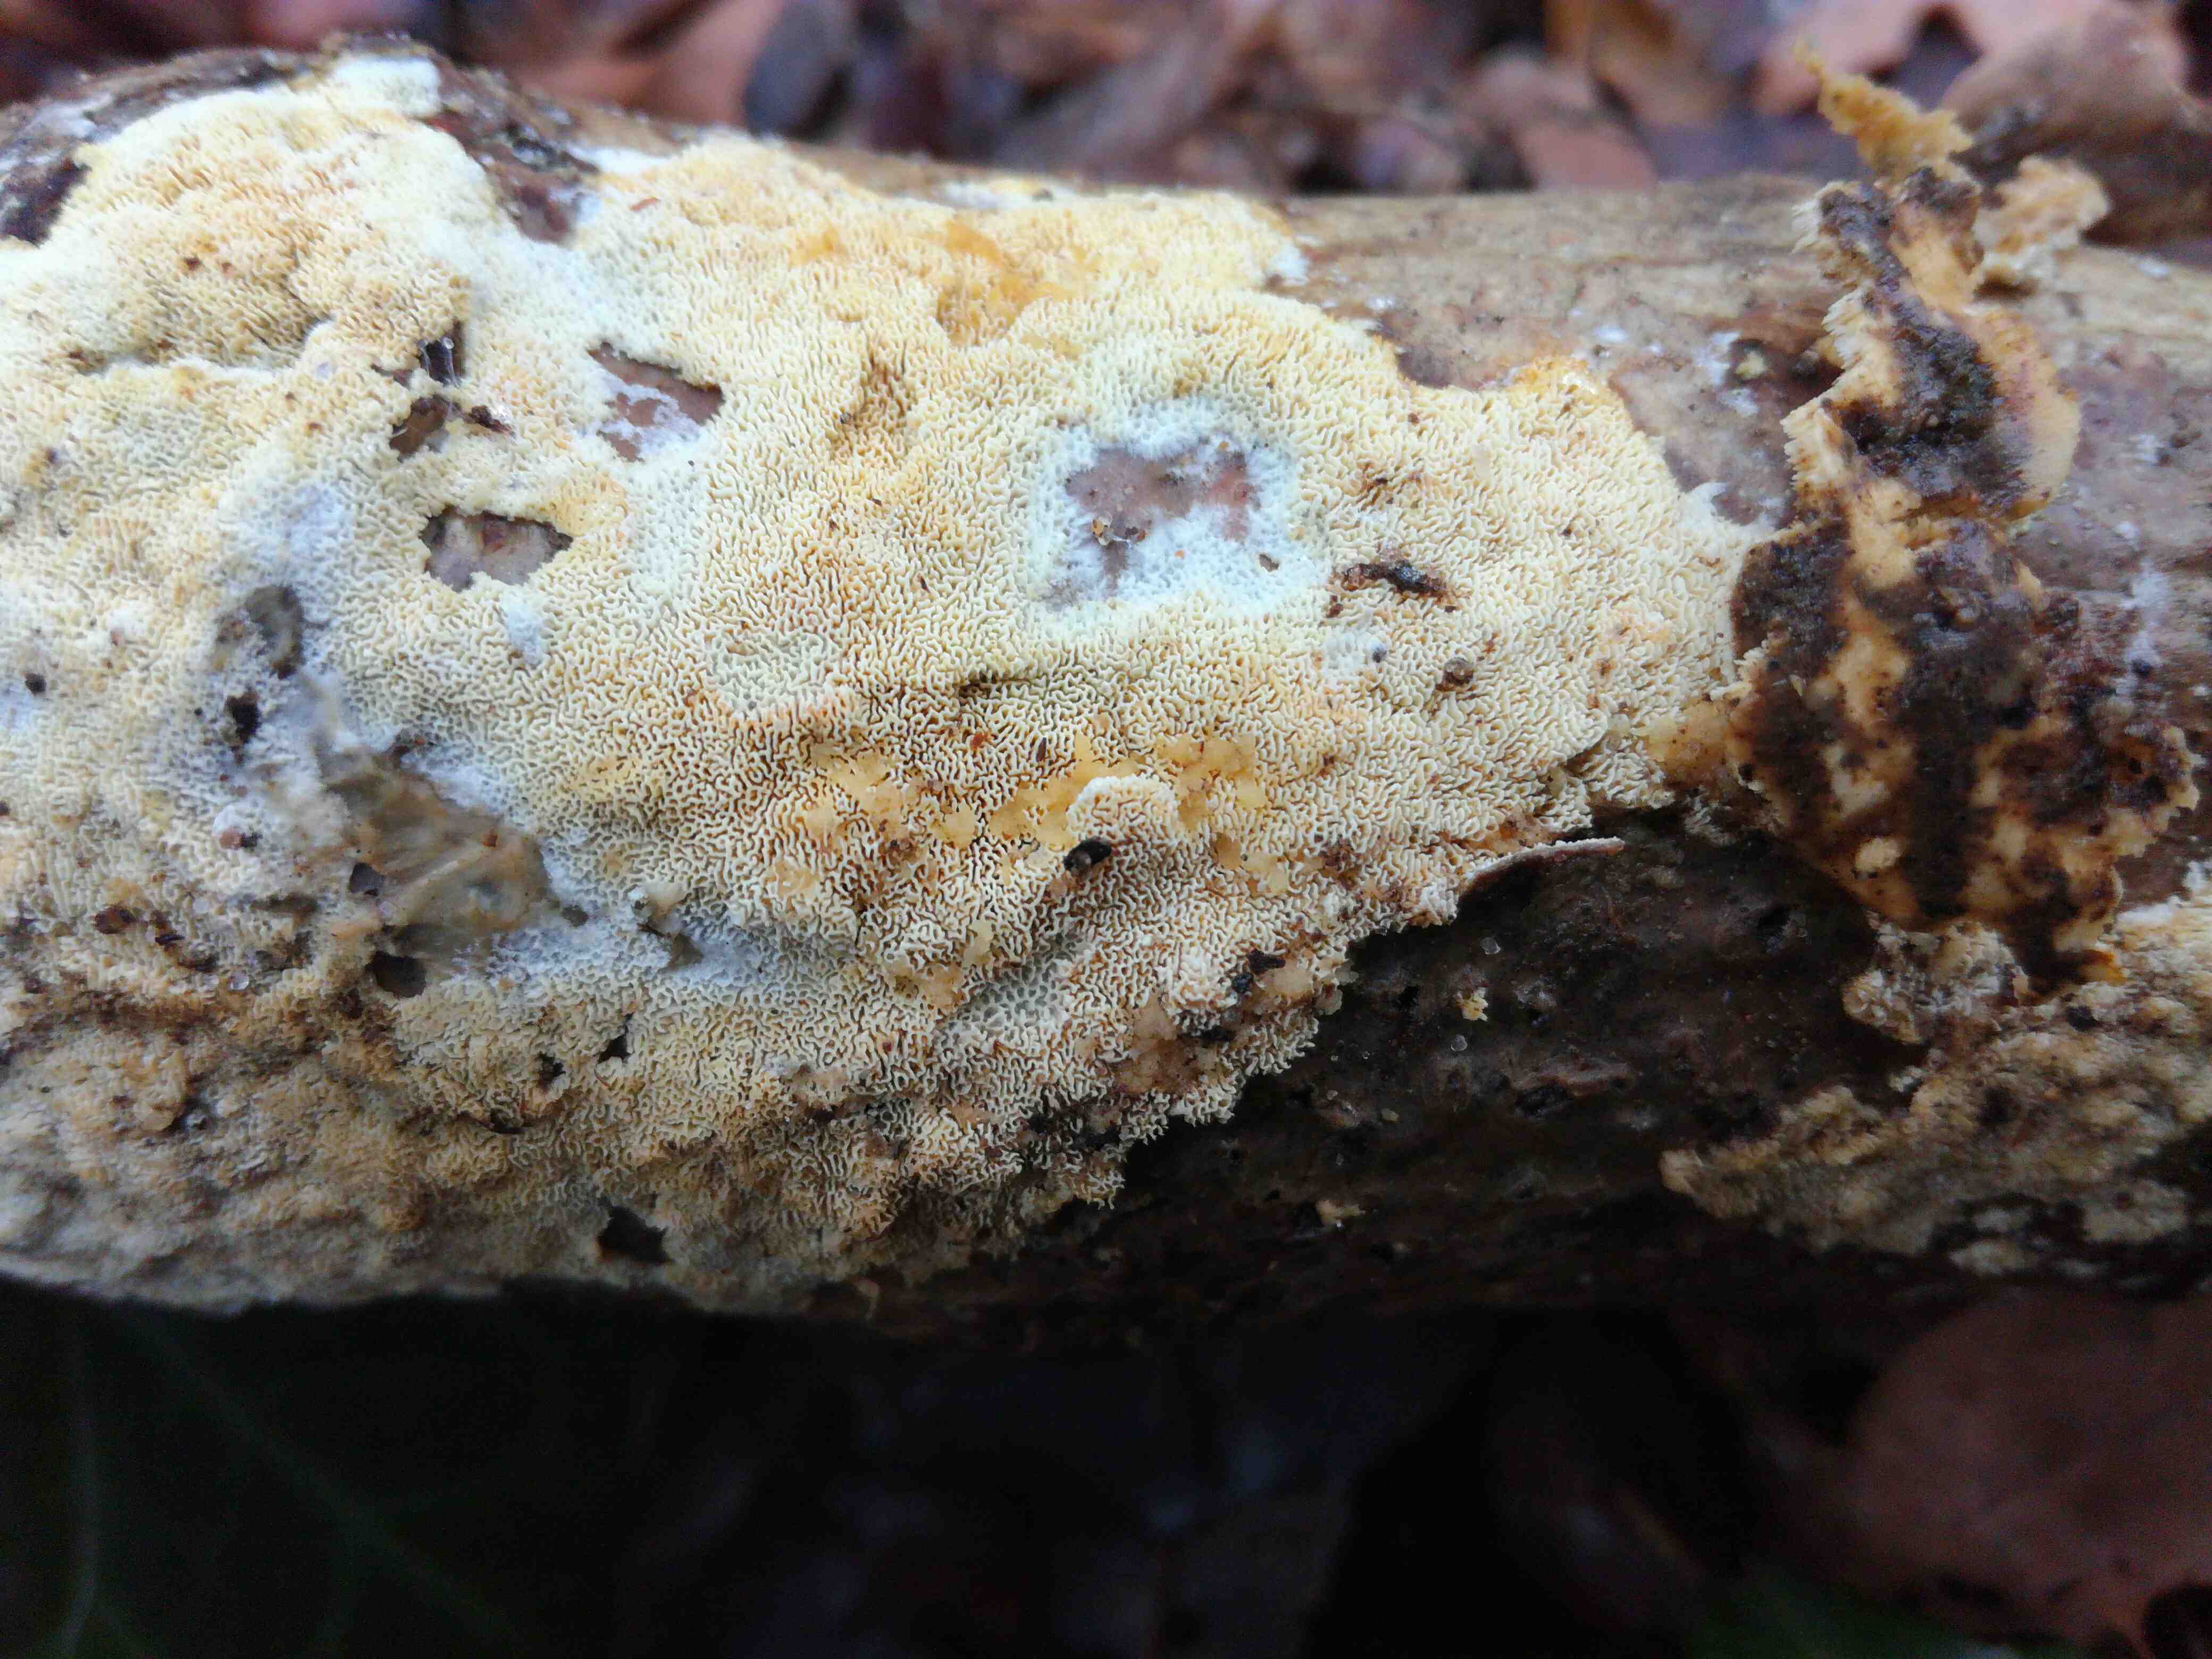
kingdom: Fungi
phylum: Basidiomycota
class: Agaricomycetes
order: Hymenochaetales
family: Schizoporaceae
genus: Xylodon
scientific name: Xylodon subtropicus
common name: labyrint-tandsvamp
